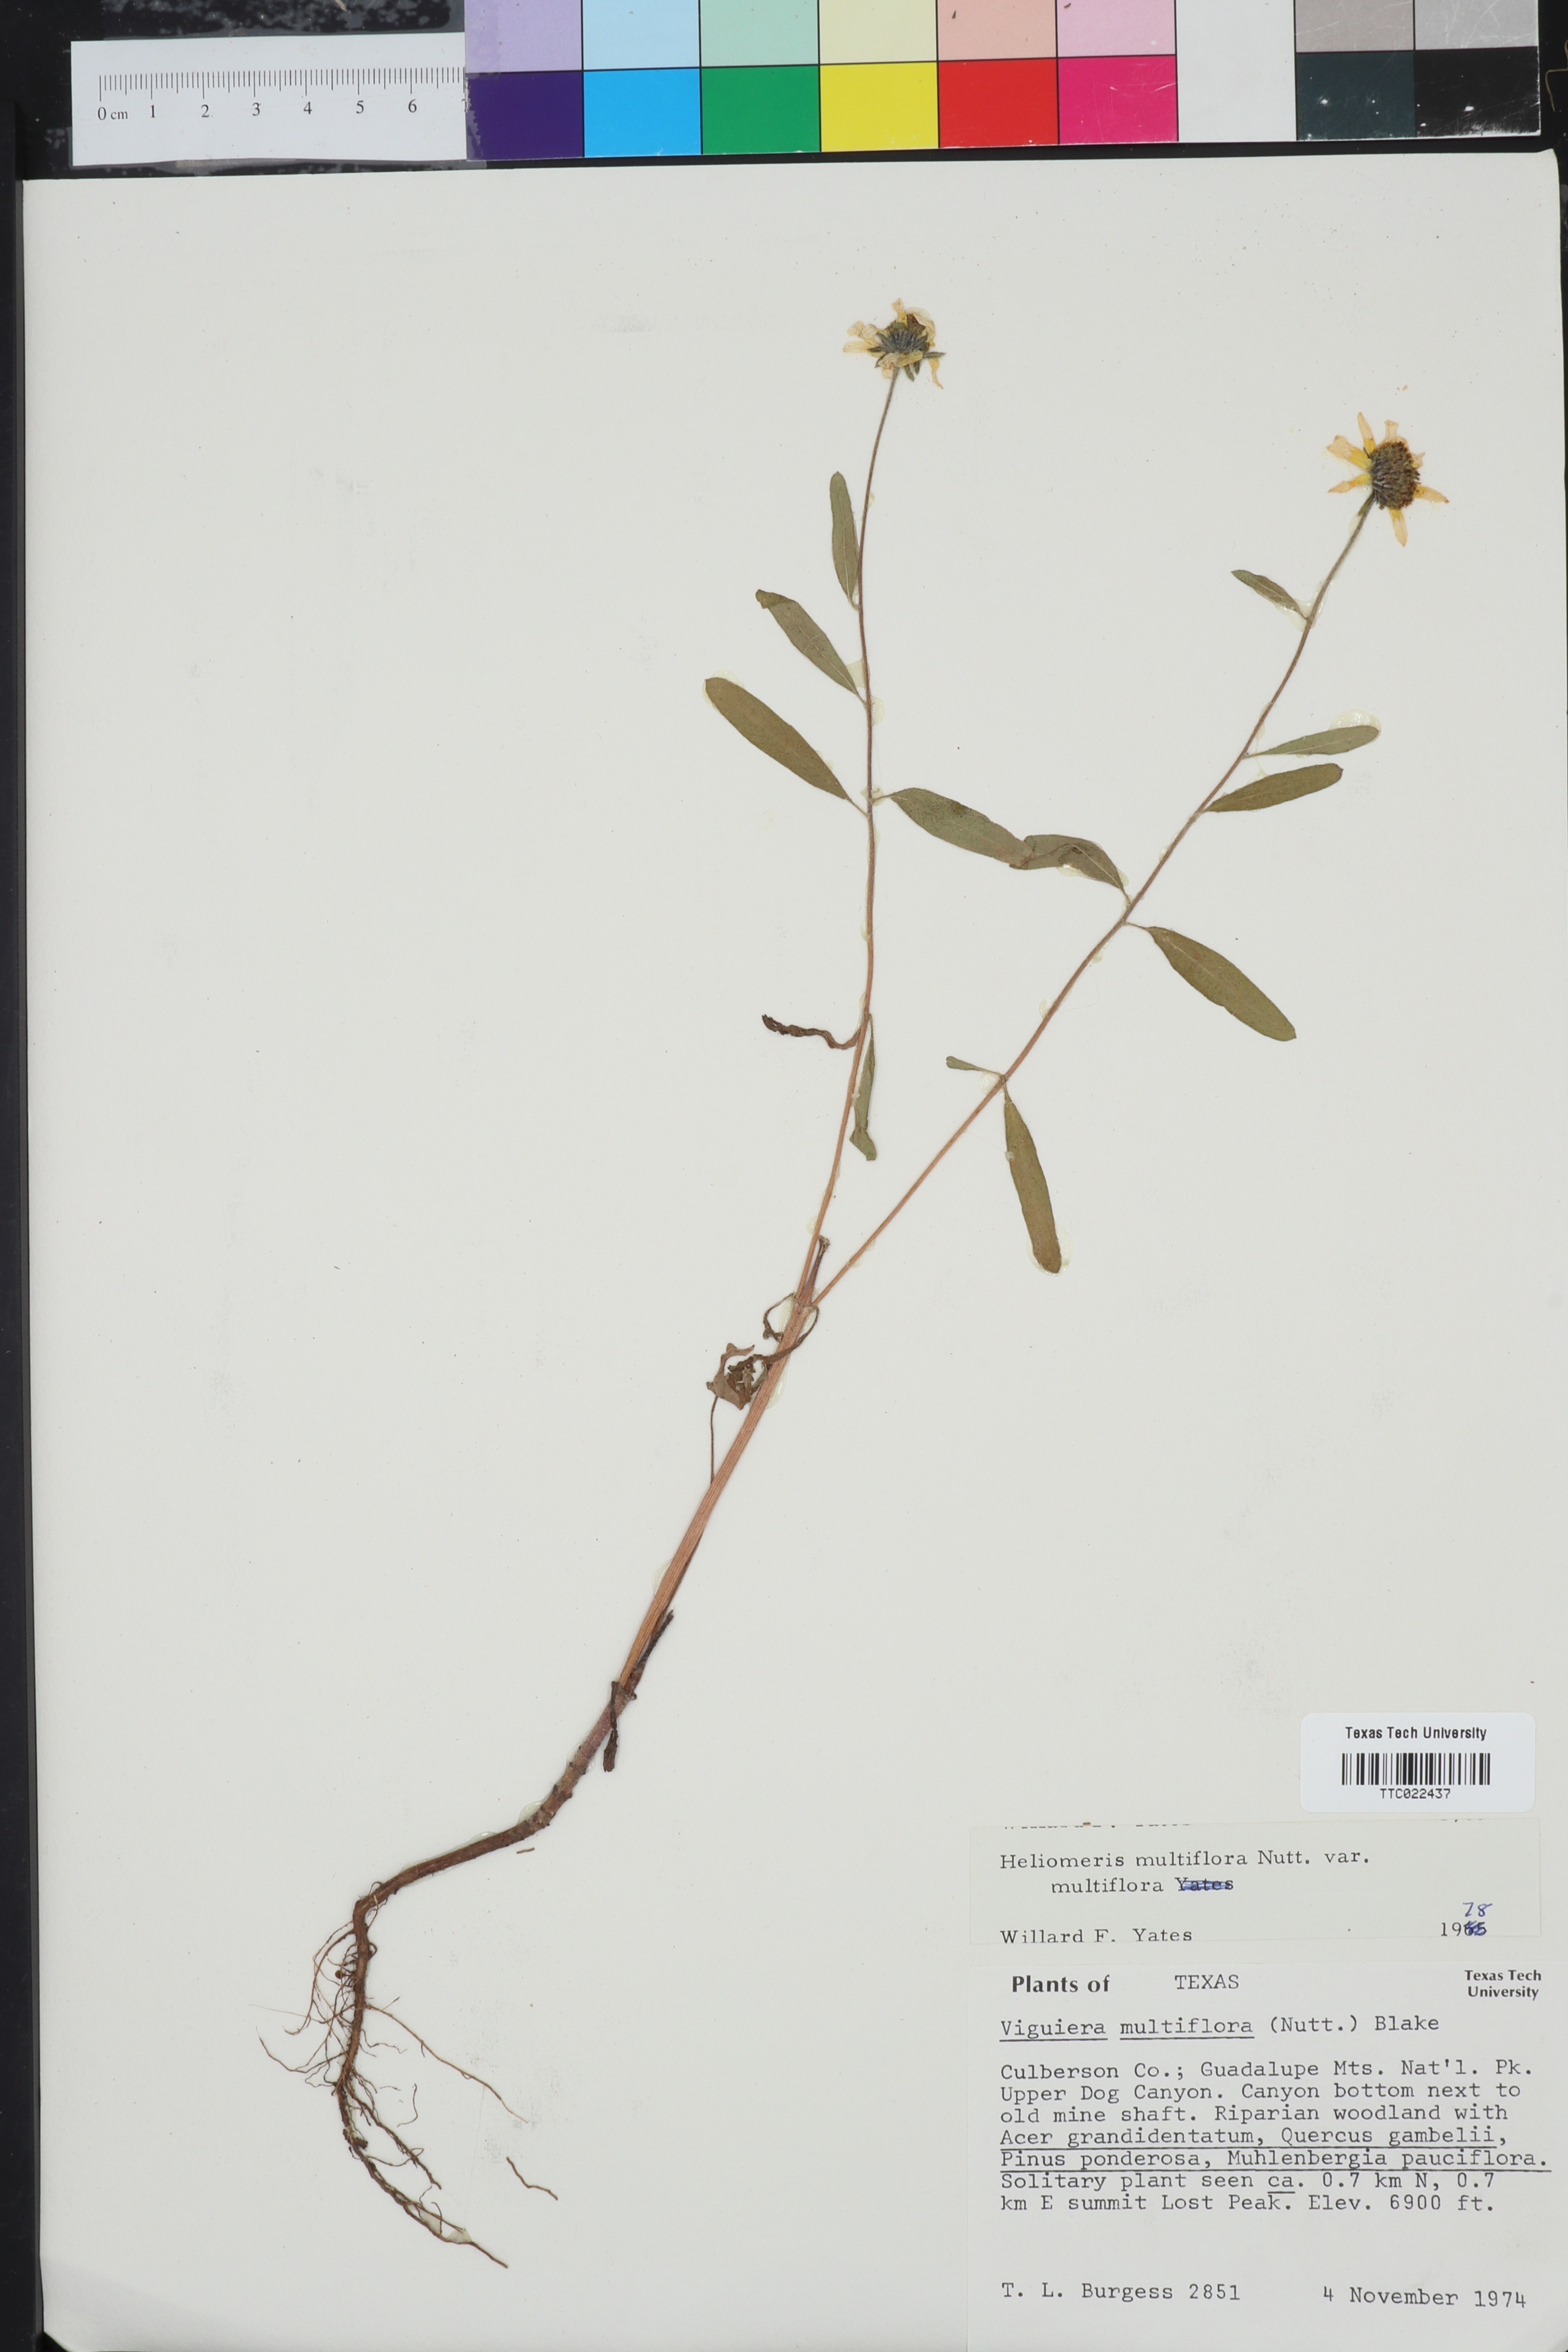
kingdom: Plantae
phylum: Tracheophyta
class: Magnoliopsida
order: Asterales
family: Asteraceae
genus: Heliomeris
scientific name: Heliomeris multiflora
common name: Showy goldeneye
